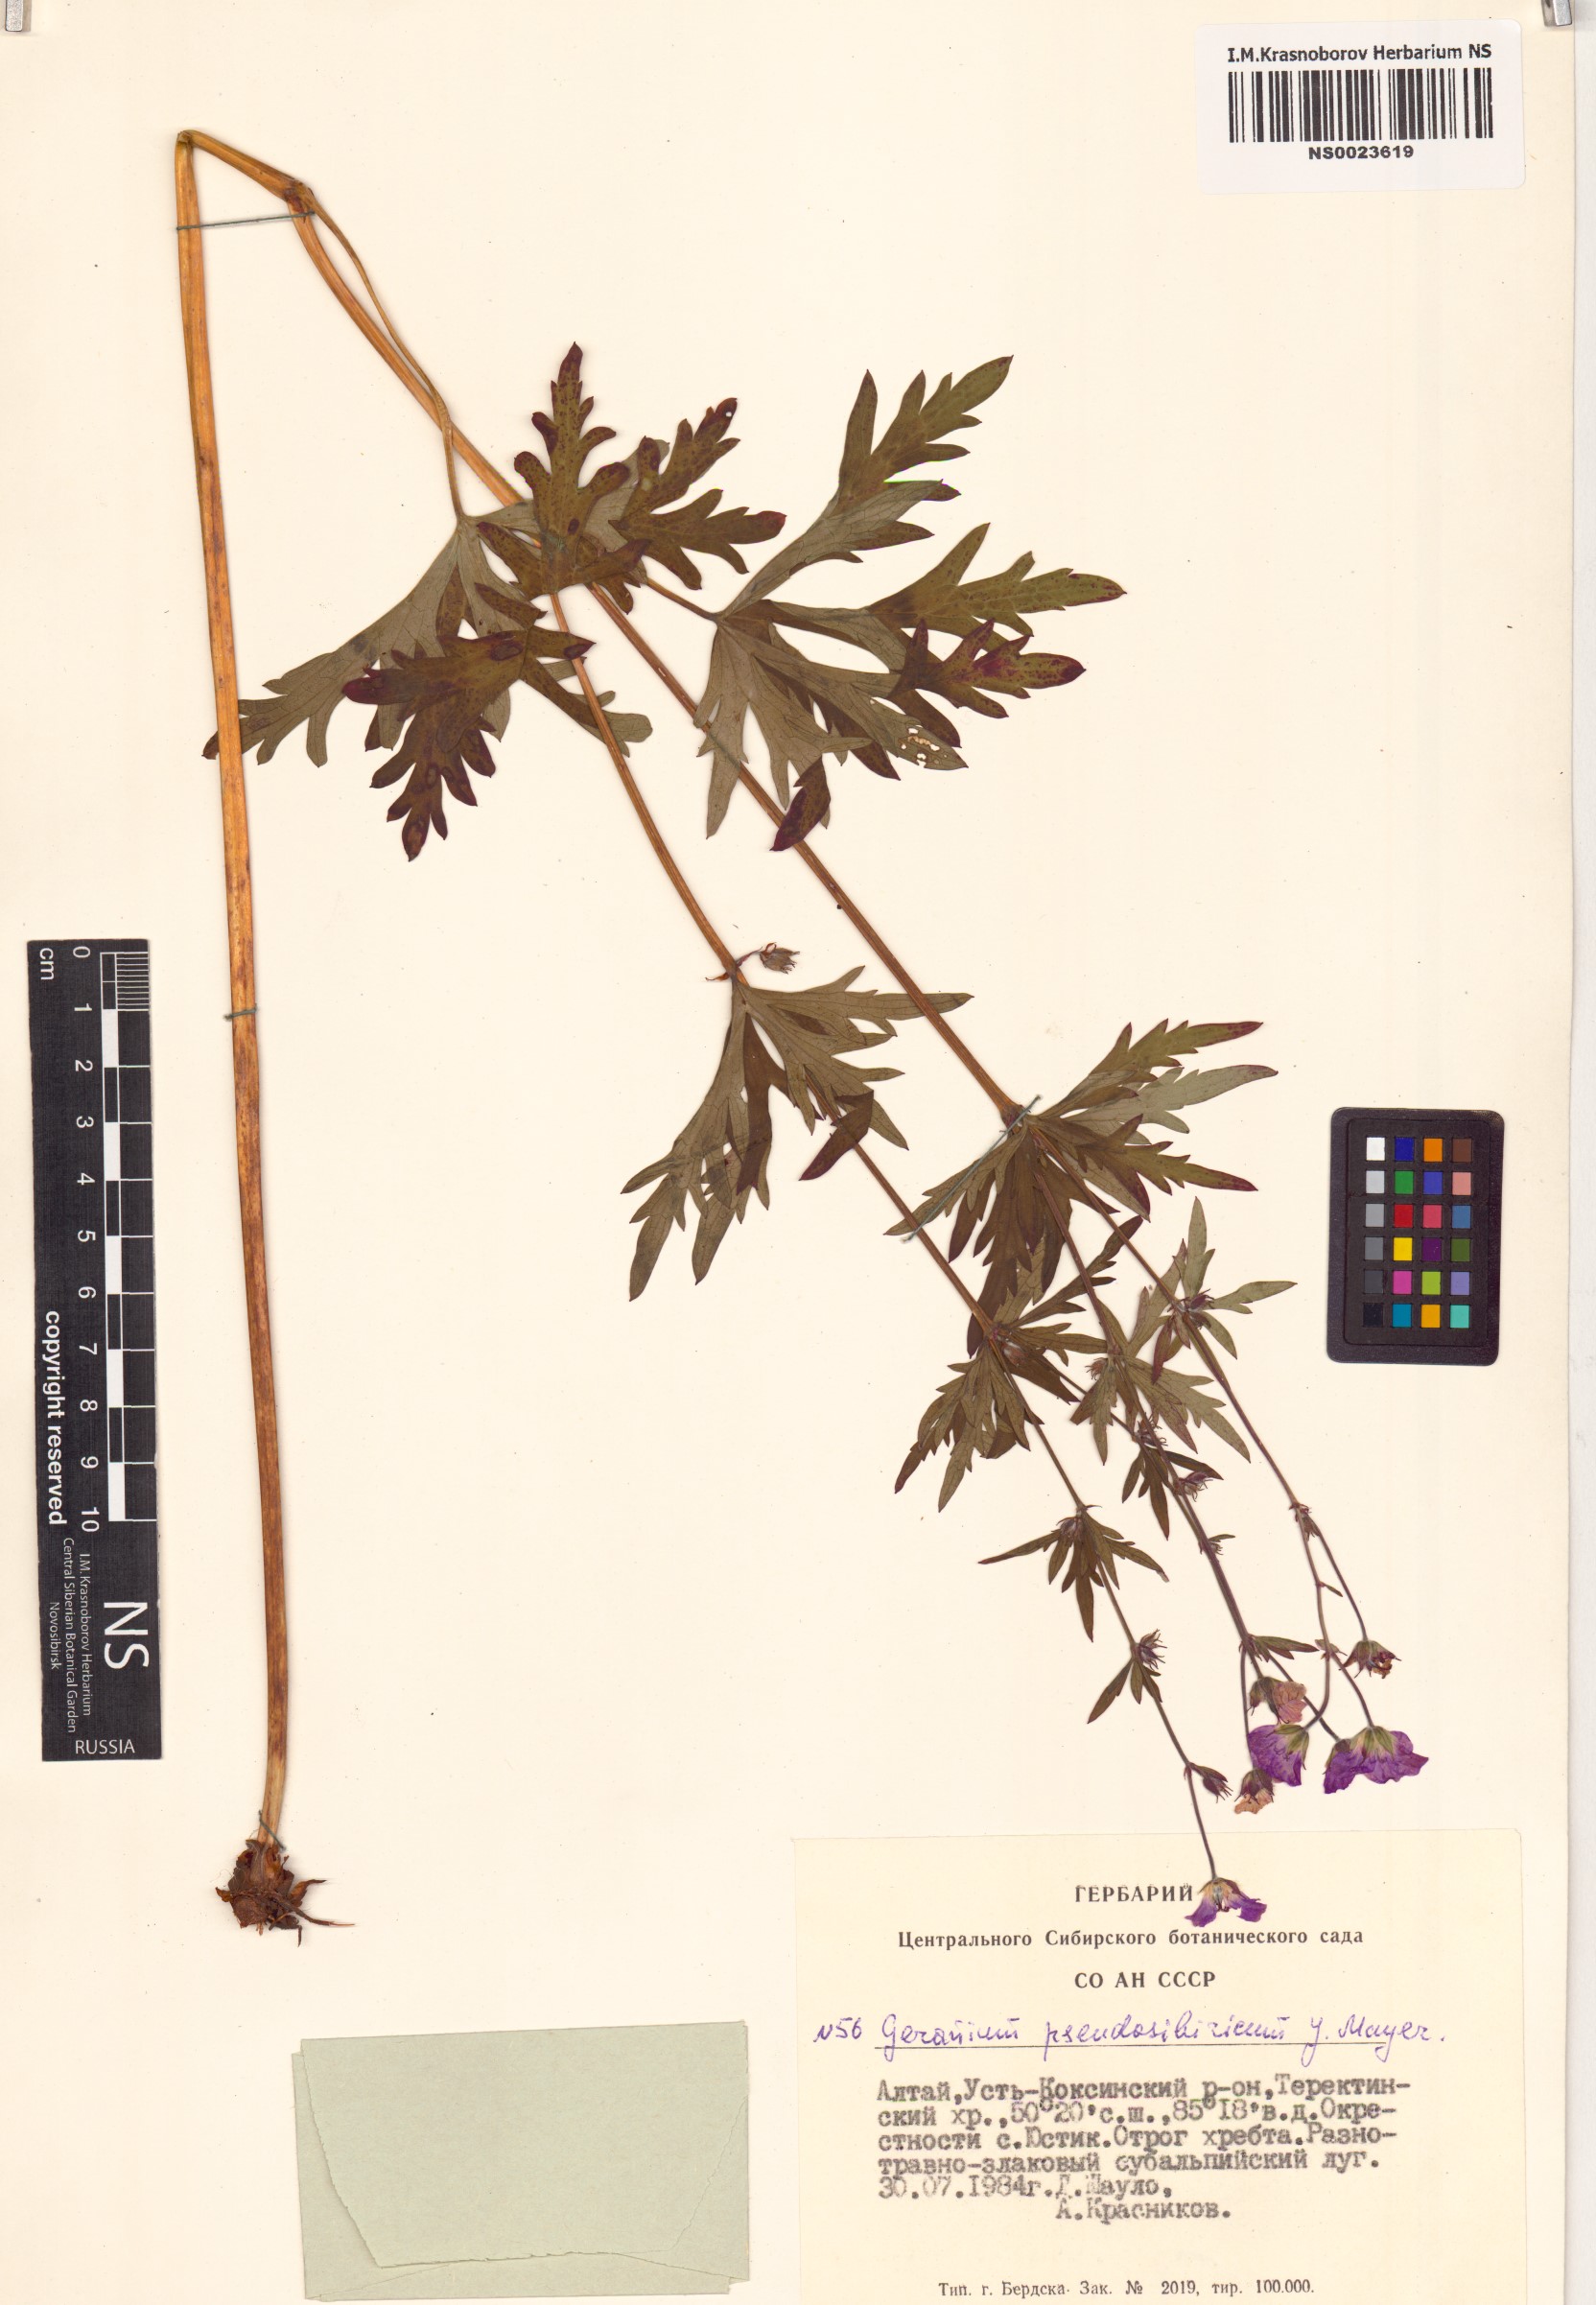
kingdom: Plantae
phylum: Tracheophyta
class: Magnoliopsida
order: Geraniales
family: Geraniaceae
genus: Geranium
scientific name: Geranium pseudosibiricum
